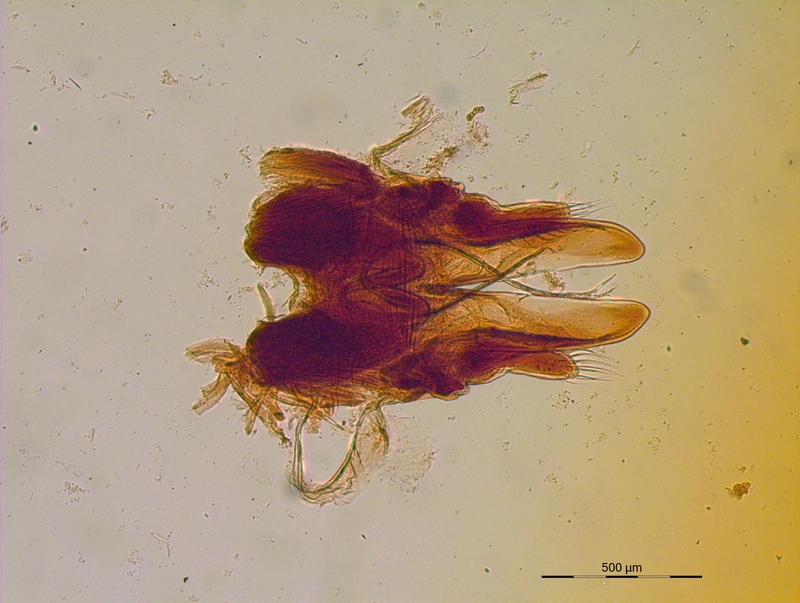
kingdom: Animalia
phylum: Arthropoda
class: Diplopoda
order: Julida
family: Mongoliulidae
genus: Paraprotopus
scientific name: Paraprotopus inferus
